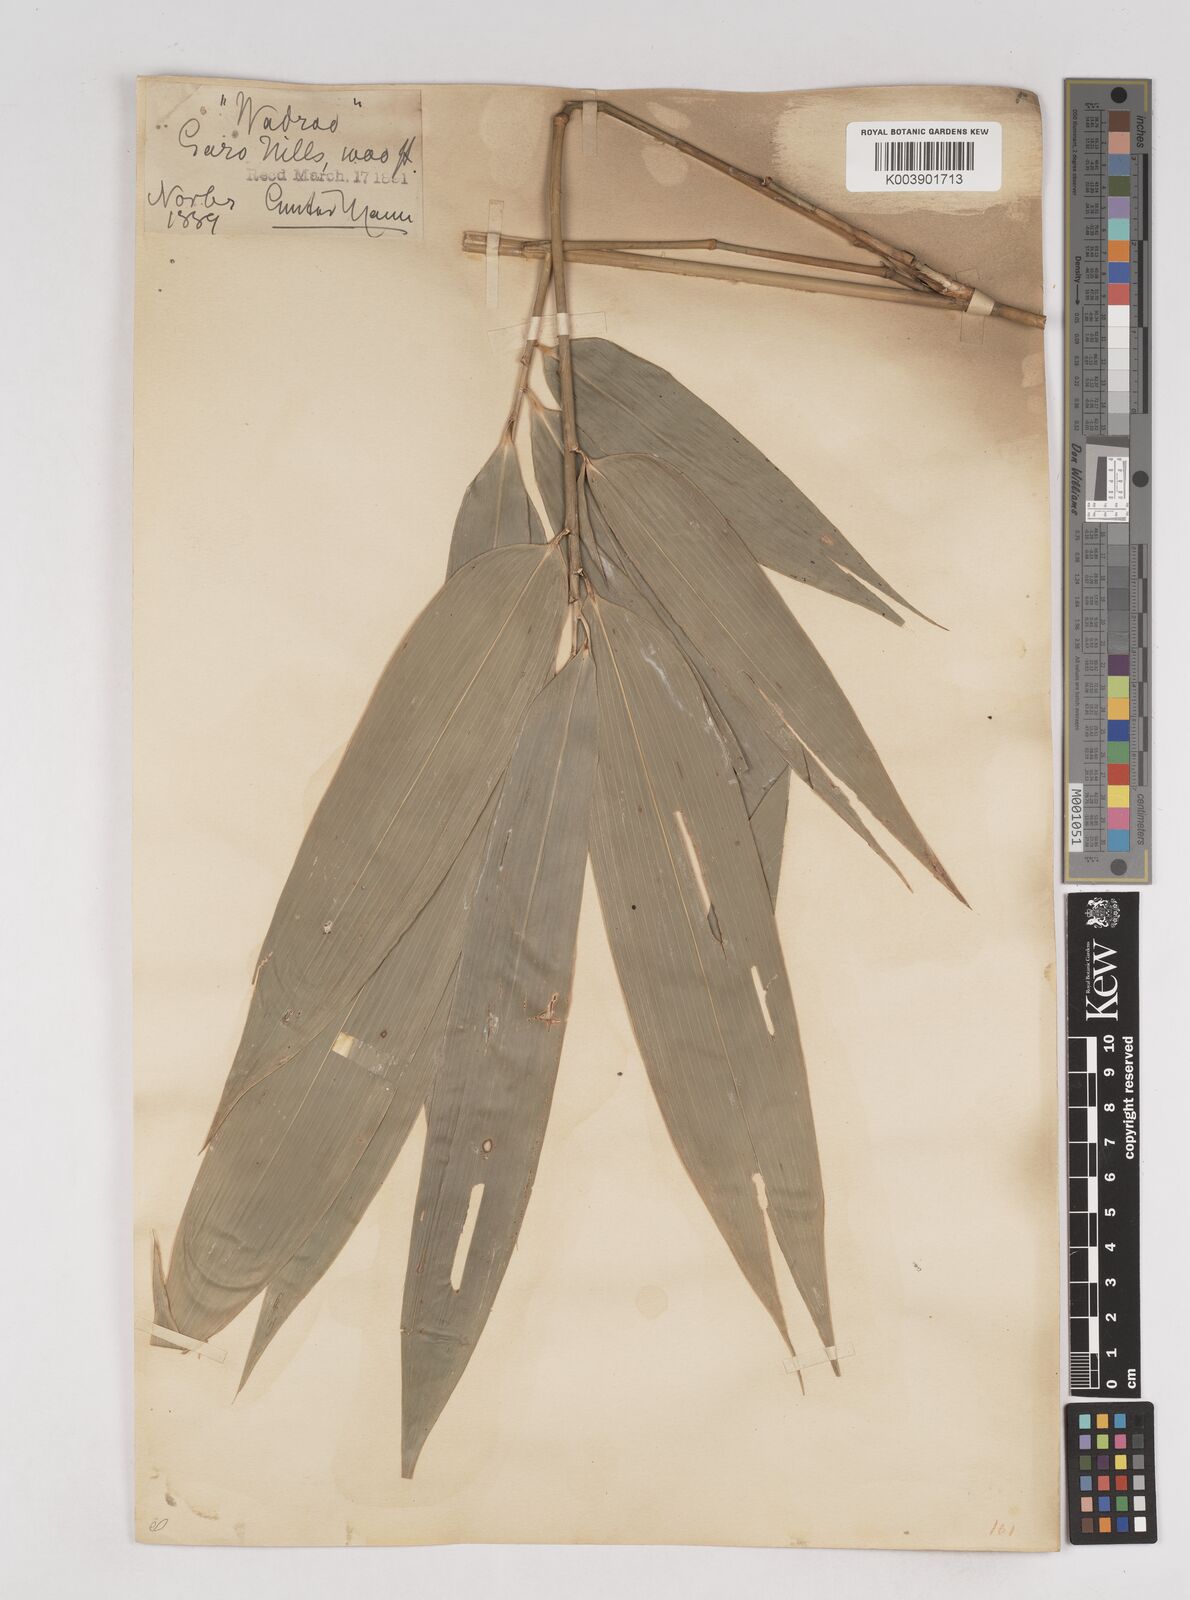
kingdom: Plantae
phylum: Tracheophyta
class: Liliopsida
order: Poales
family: Poaceae
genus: Schizostachyum
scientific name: Schizostachyum dullooa
